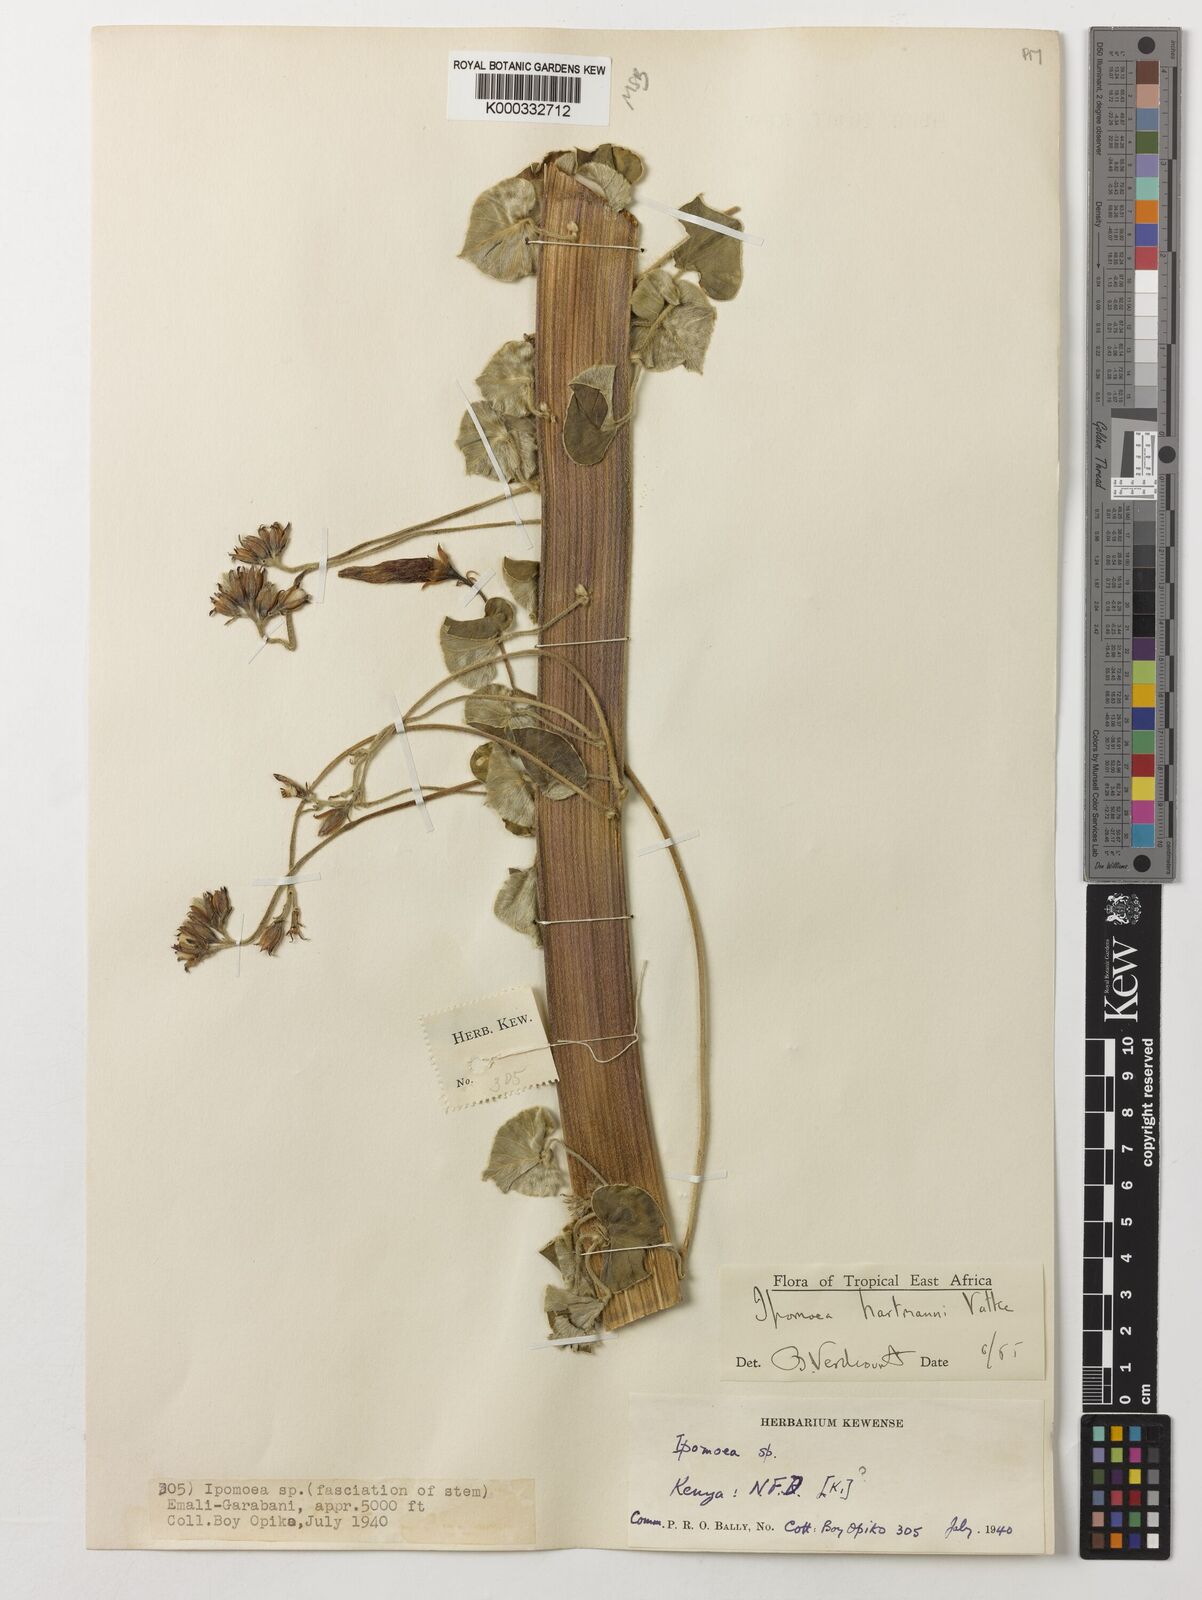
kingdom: Plantae
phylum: Tracheophyta
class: Magnoliopsida
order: Solanales
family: Convolvulaceae
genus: Ipomoea
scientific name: Ipomoea hartmannii
